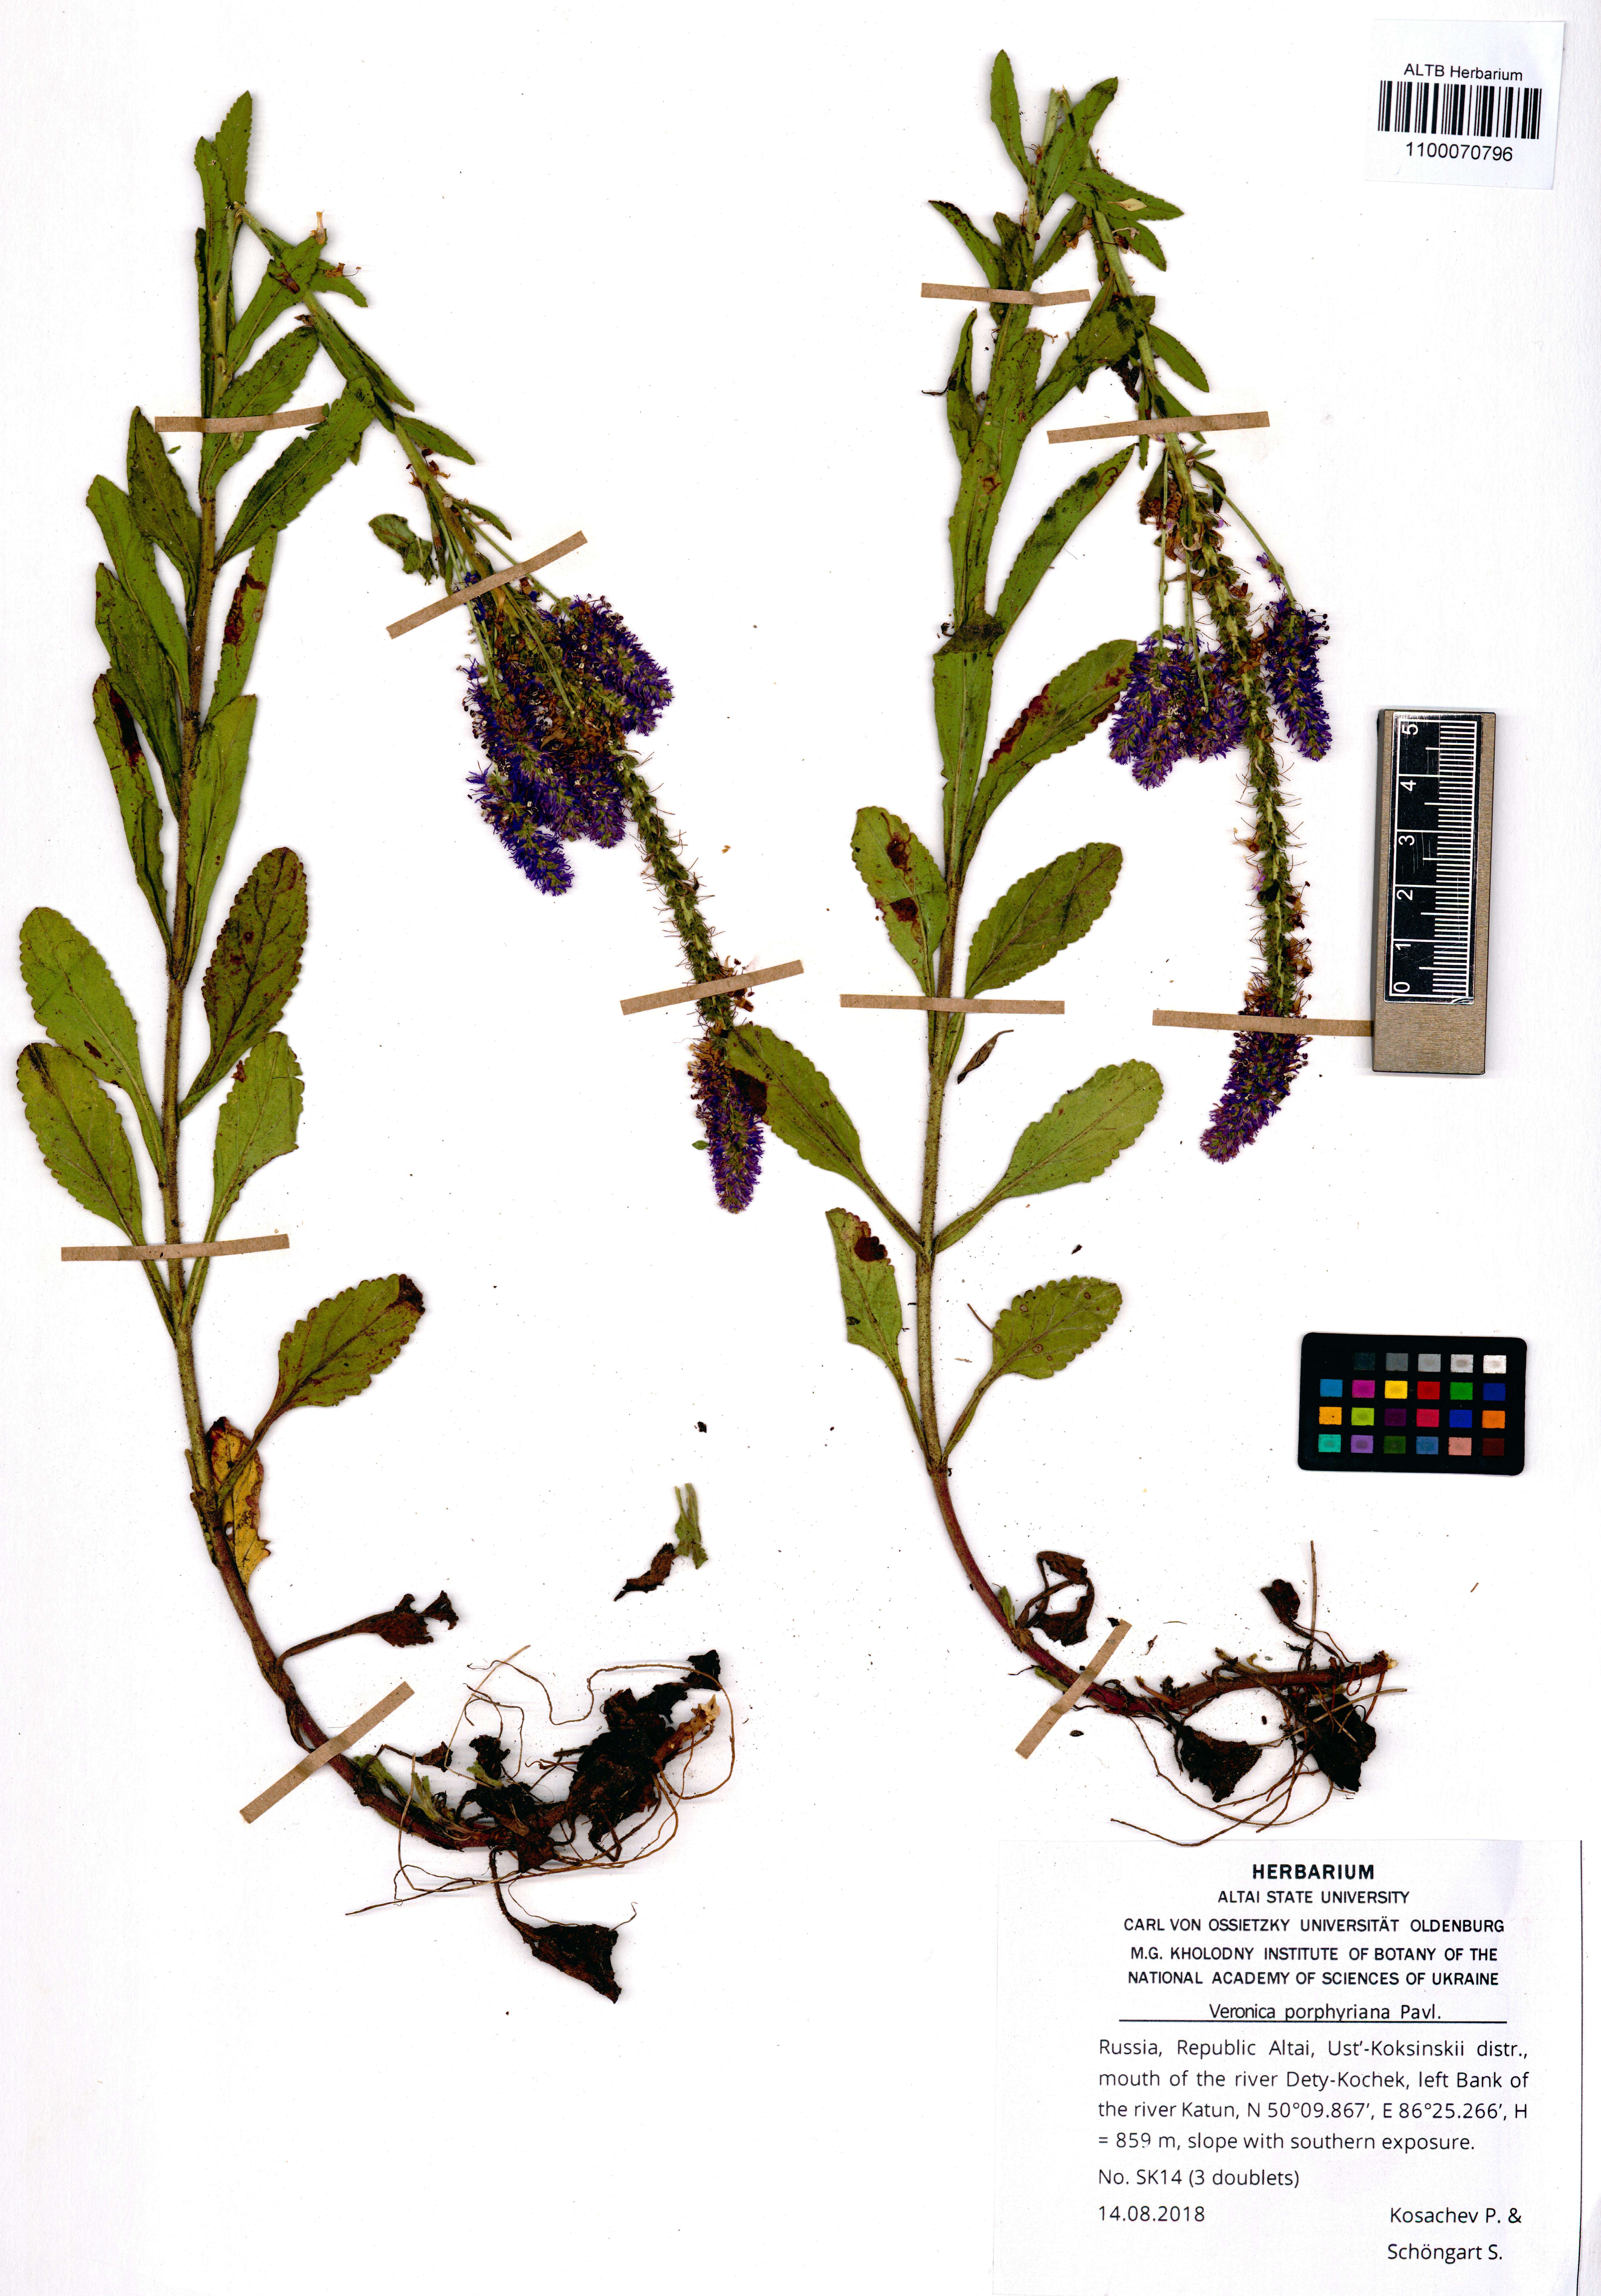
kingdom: Plantae
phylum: Tracheophyta
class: Magnoliopsida
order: Lamiales
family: Plantaginaceae
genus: Veronica
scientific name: Veronica porphyriana
